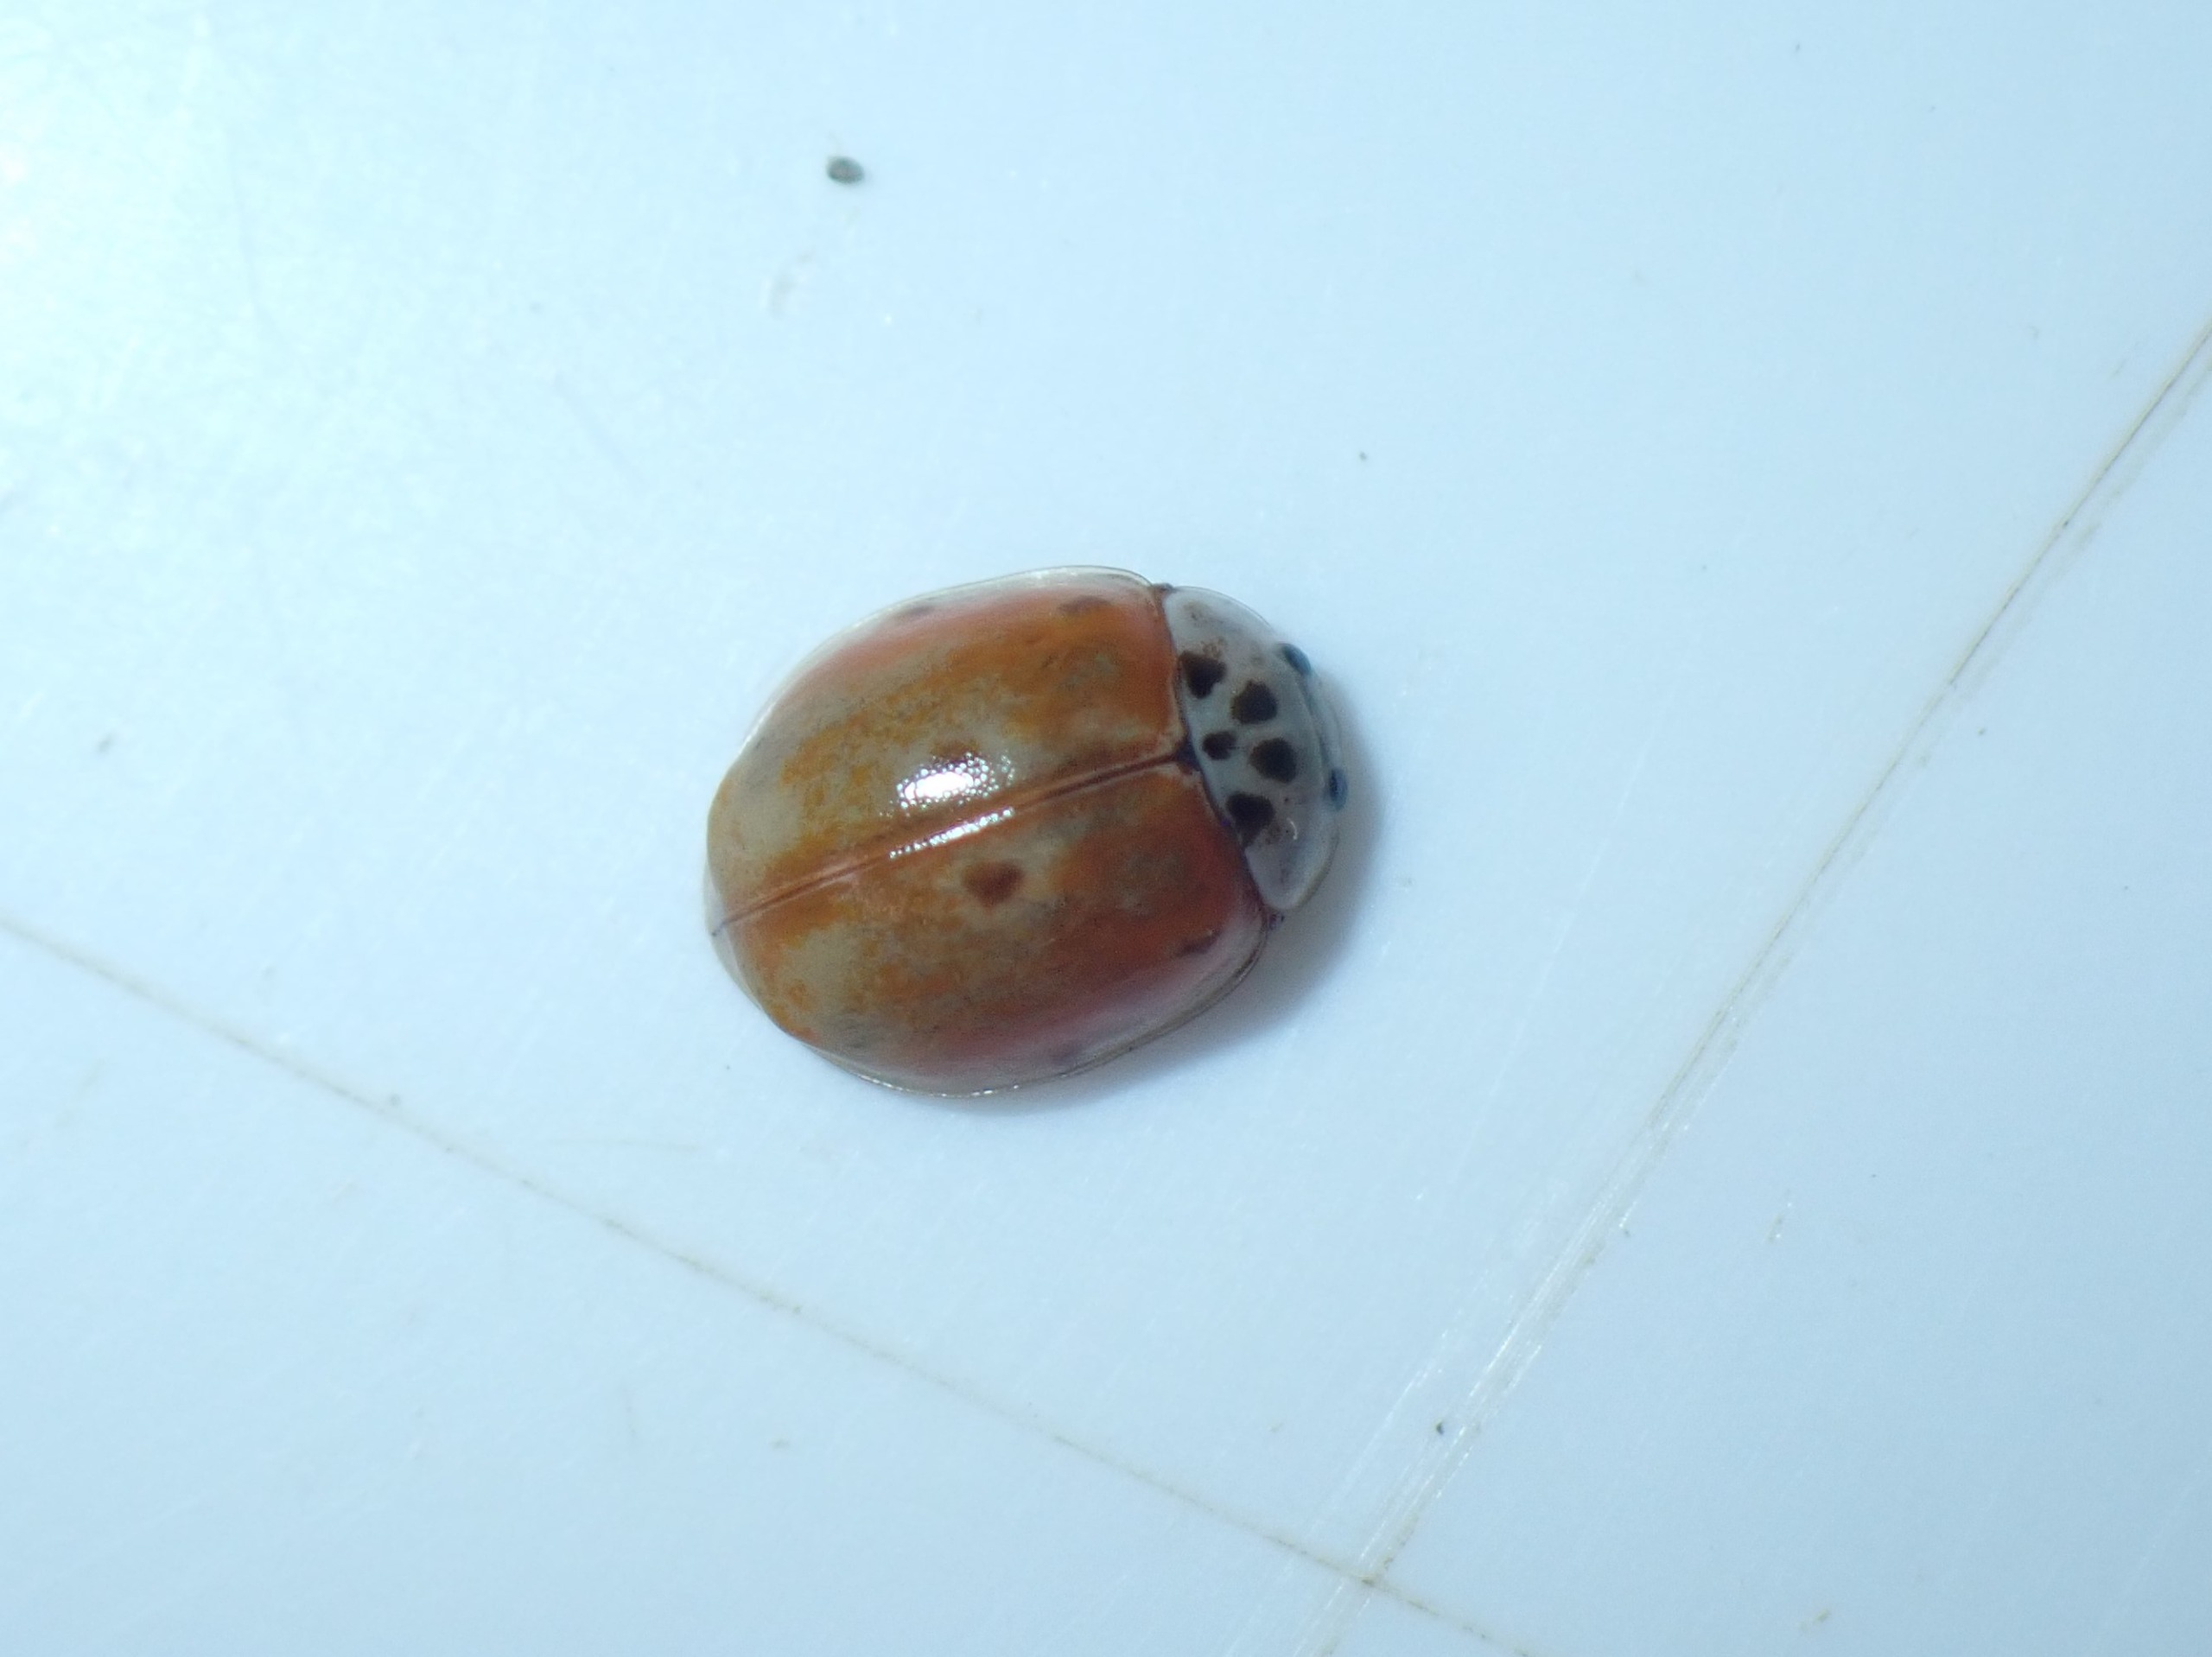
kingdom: Animalia
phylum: Arthropoda
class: Insecta
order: Coleoptera
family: Coccinellidae
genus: Adalia
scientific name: Adalia decempunctata
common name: Tiplettet mariehøne
